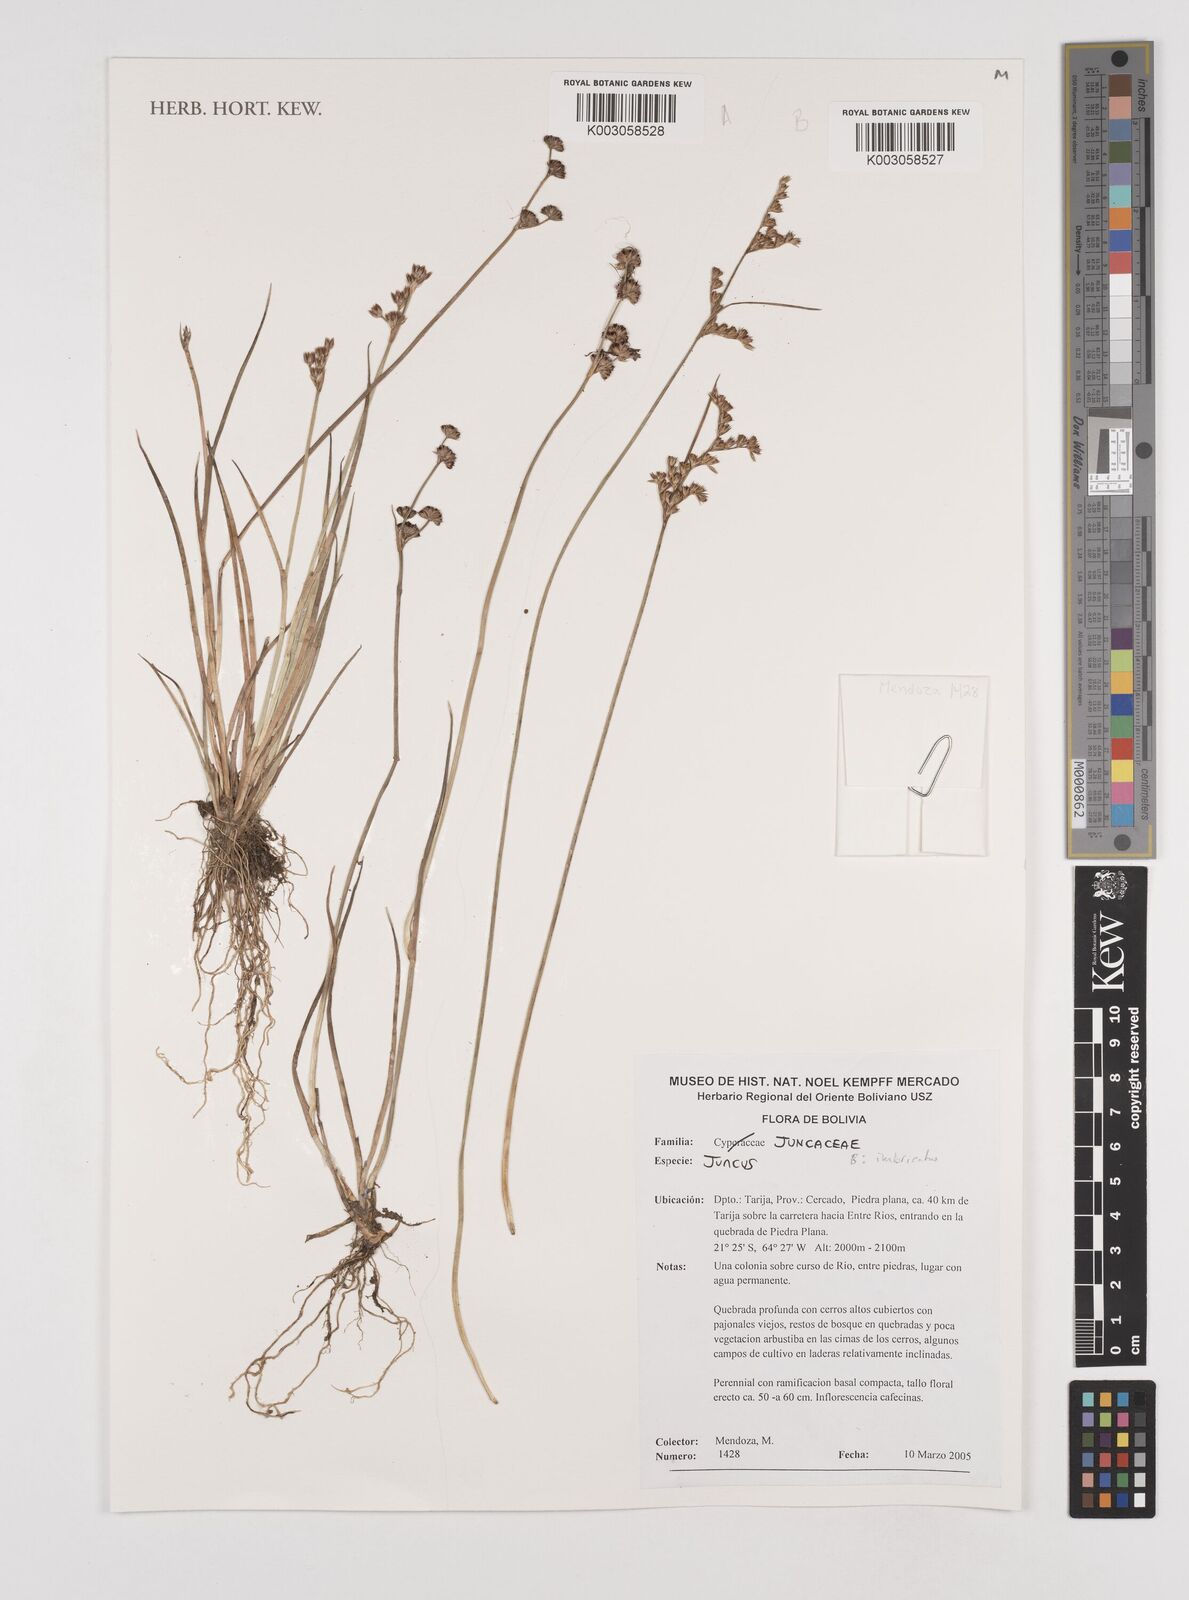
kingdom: Plantae
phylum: Tracheophyta
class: Liliopsida
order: Poales
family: Juncaceae
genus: Juncus
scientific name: Juncus imbricatus
